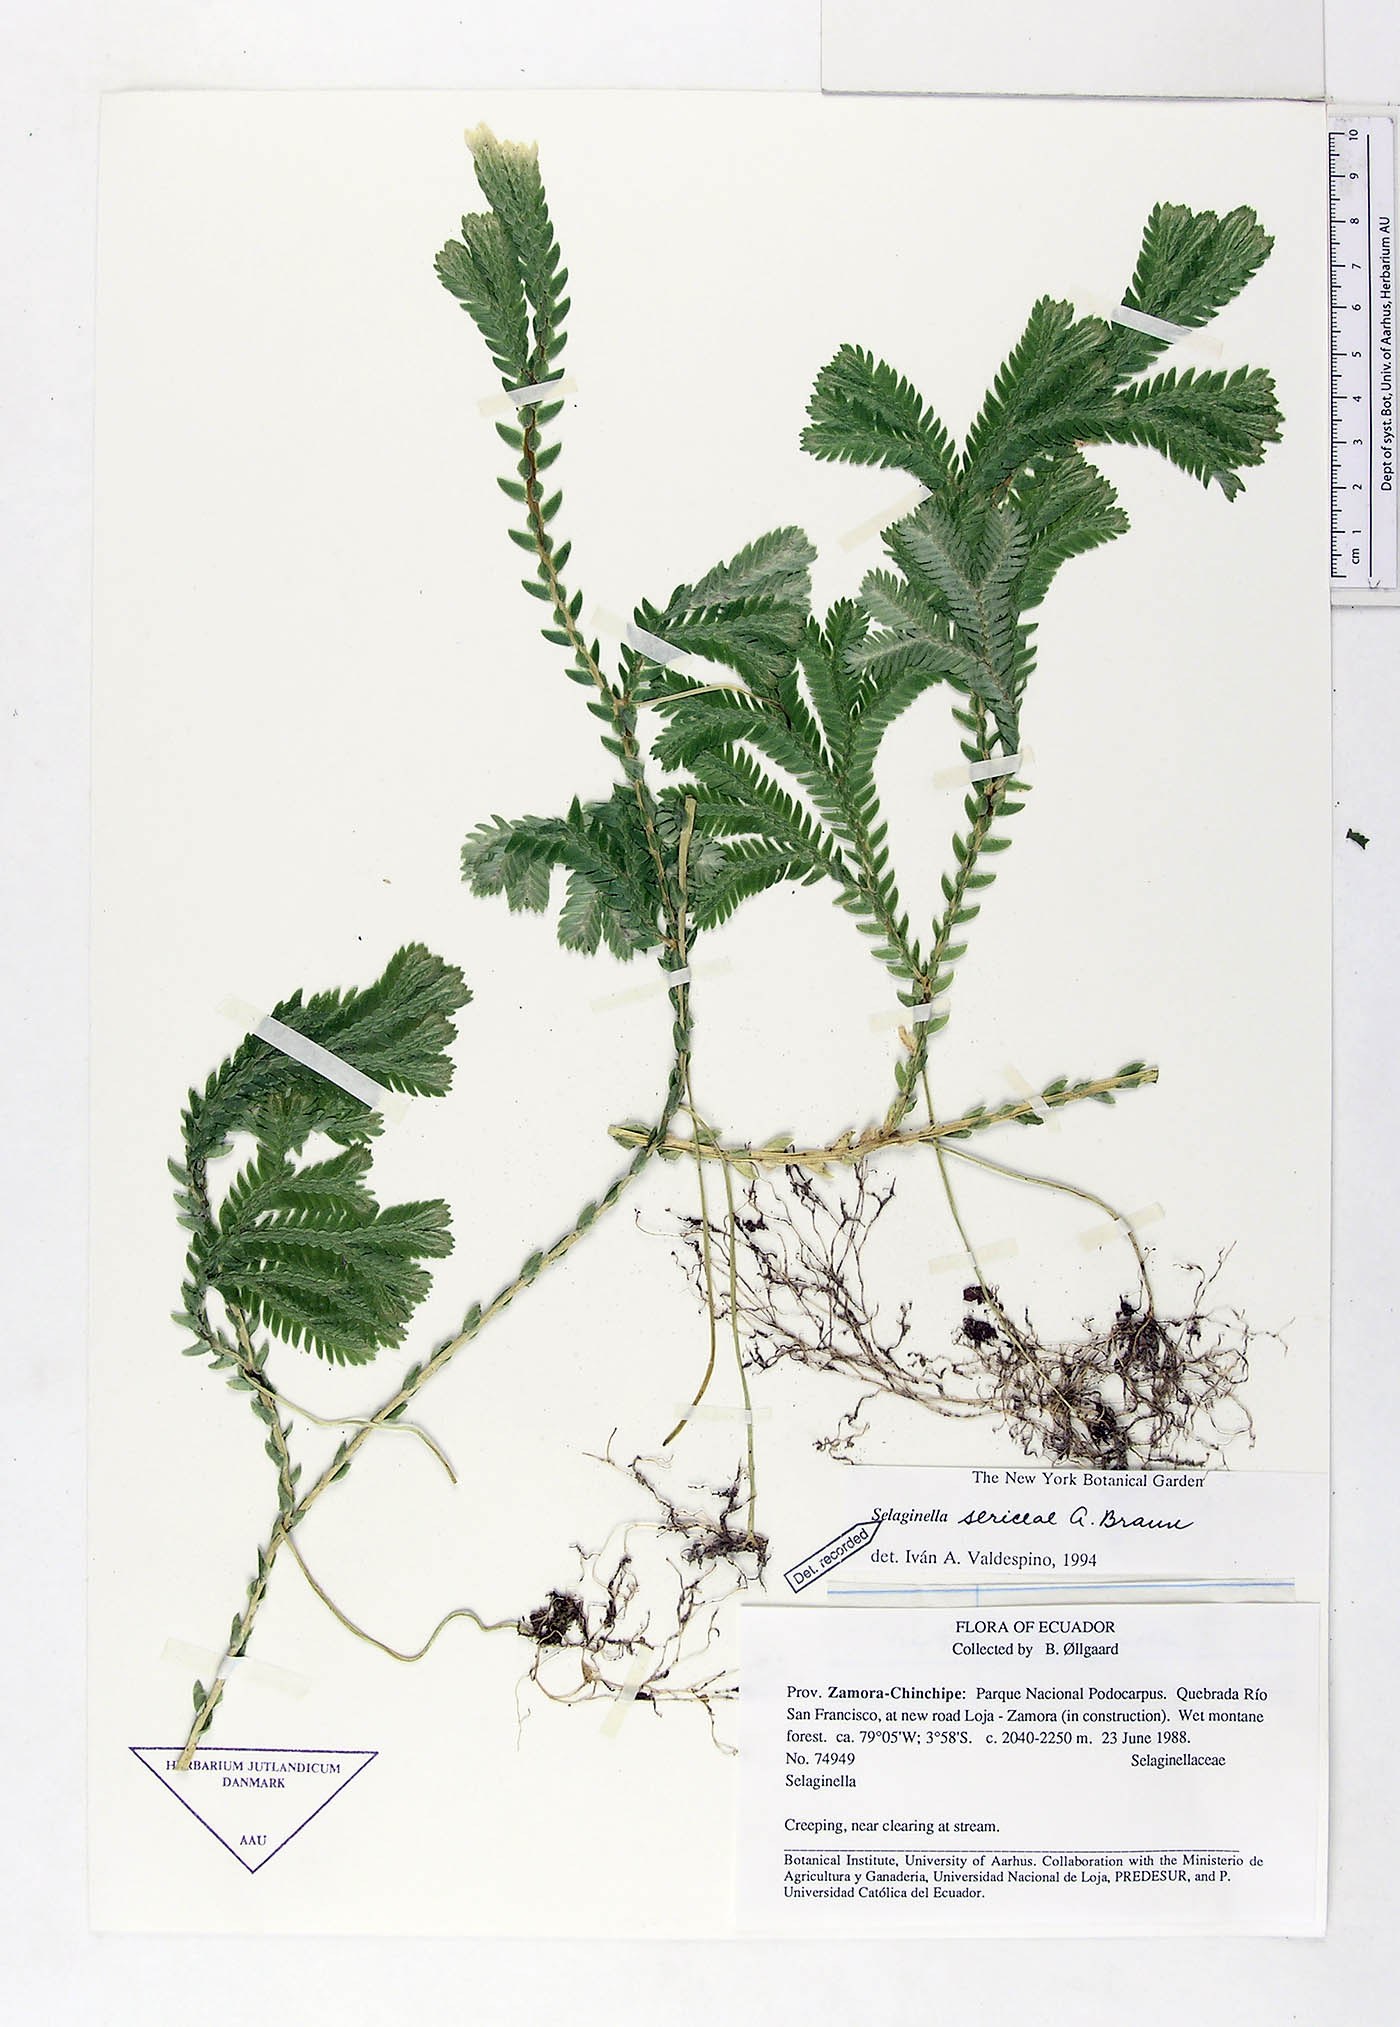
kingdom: Plantae
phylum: Tracheophyta
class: Lycopodiopsida
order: Selaginellales
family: Selaginellaceae
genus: Selaginella
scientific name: Selaginella sericea
